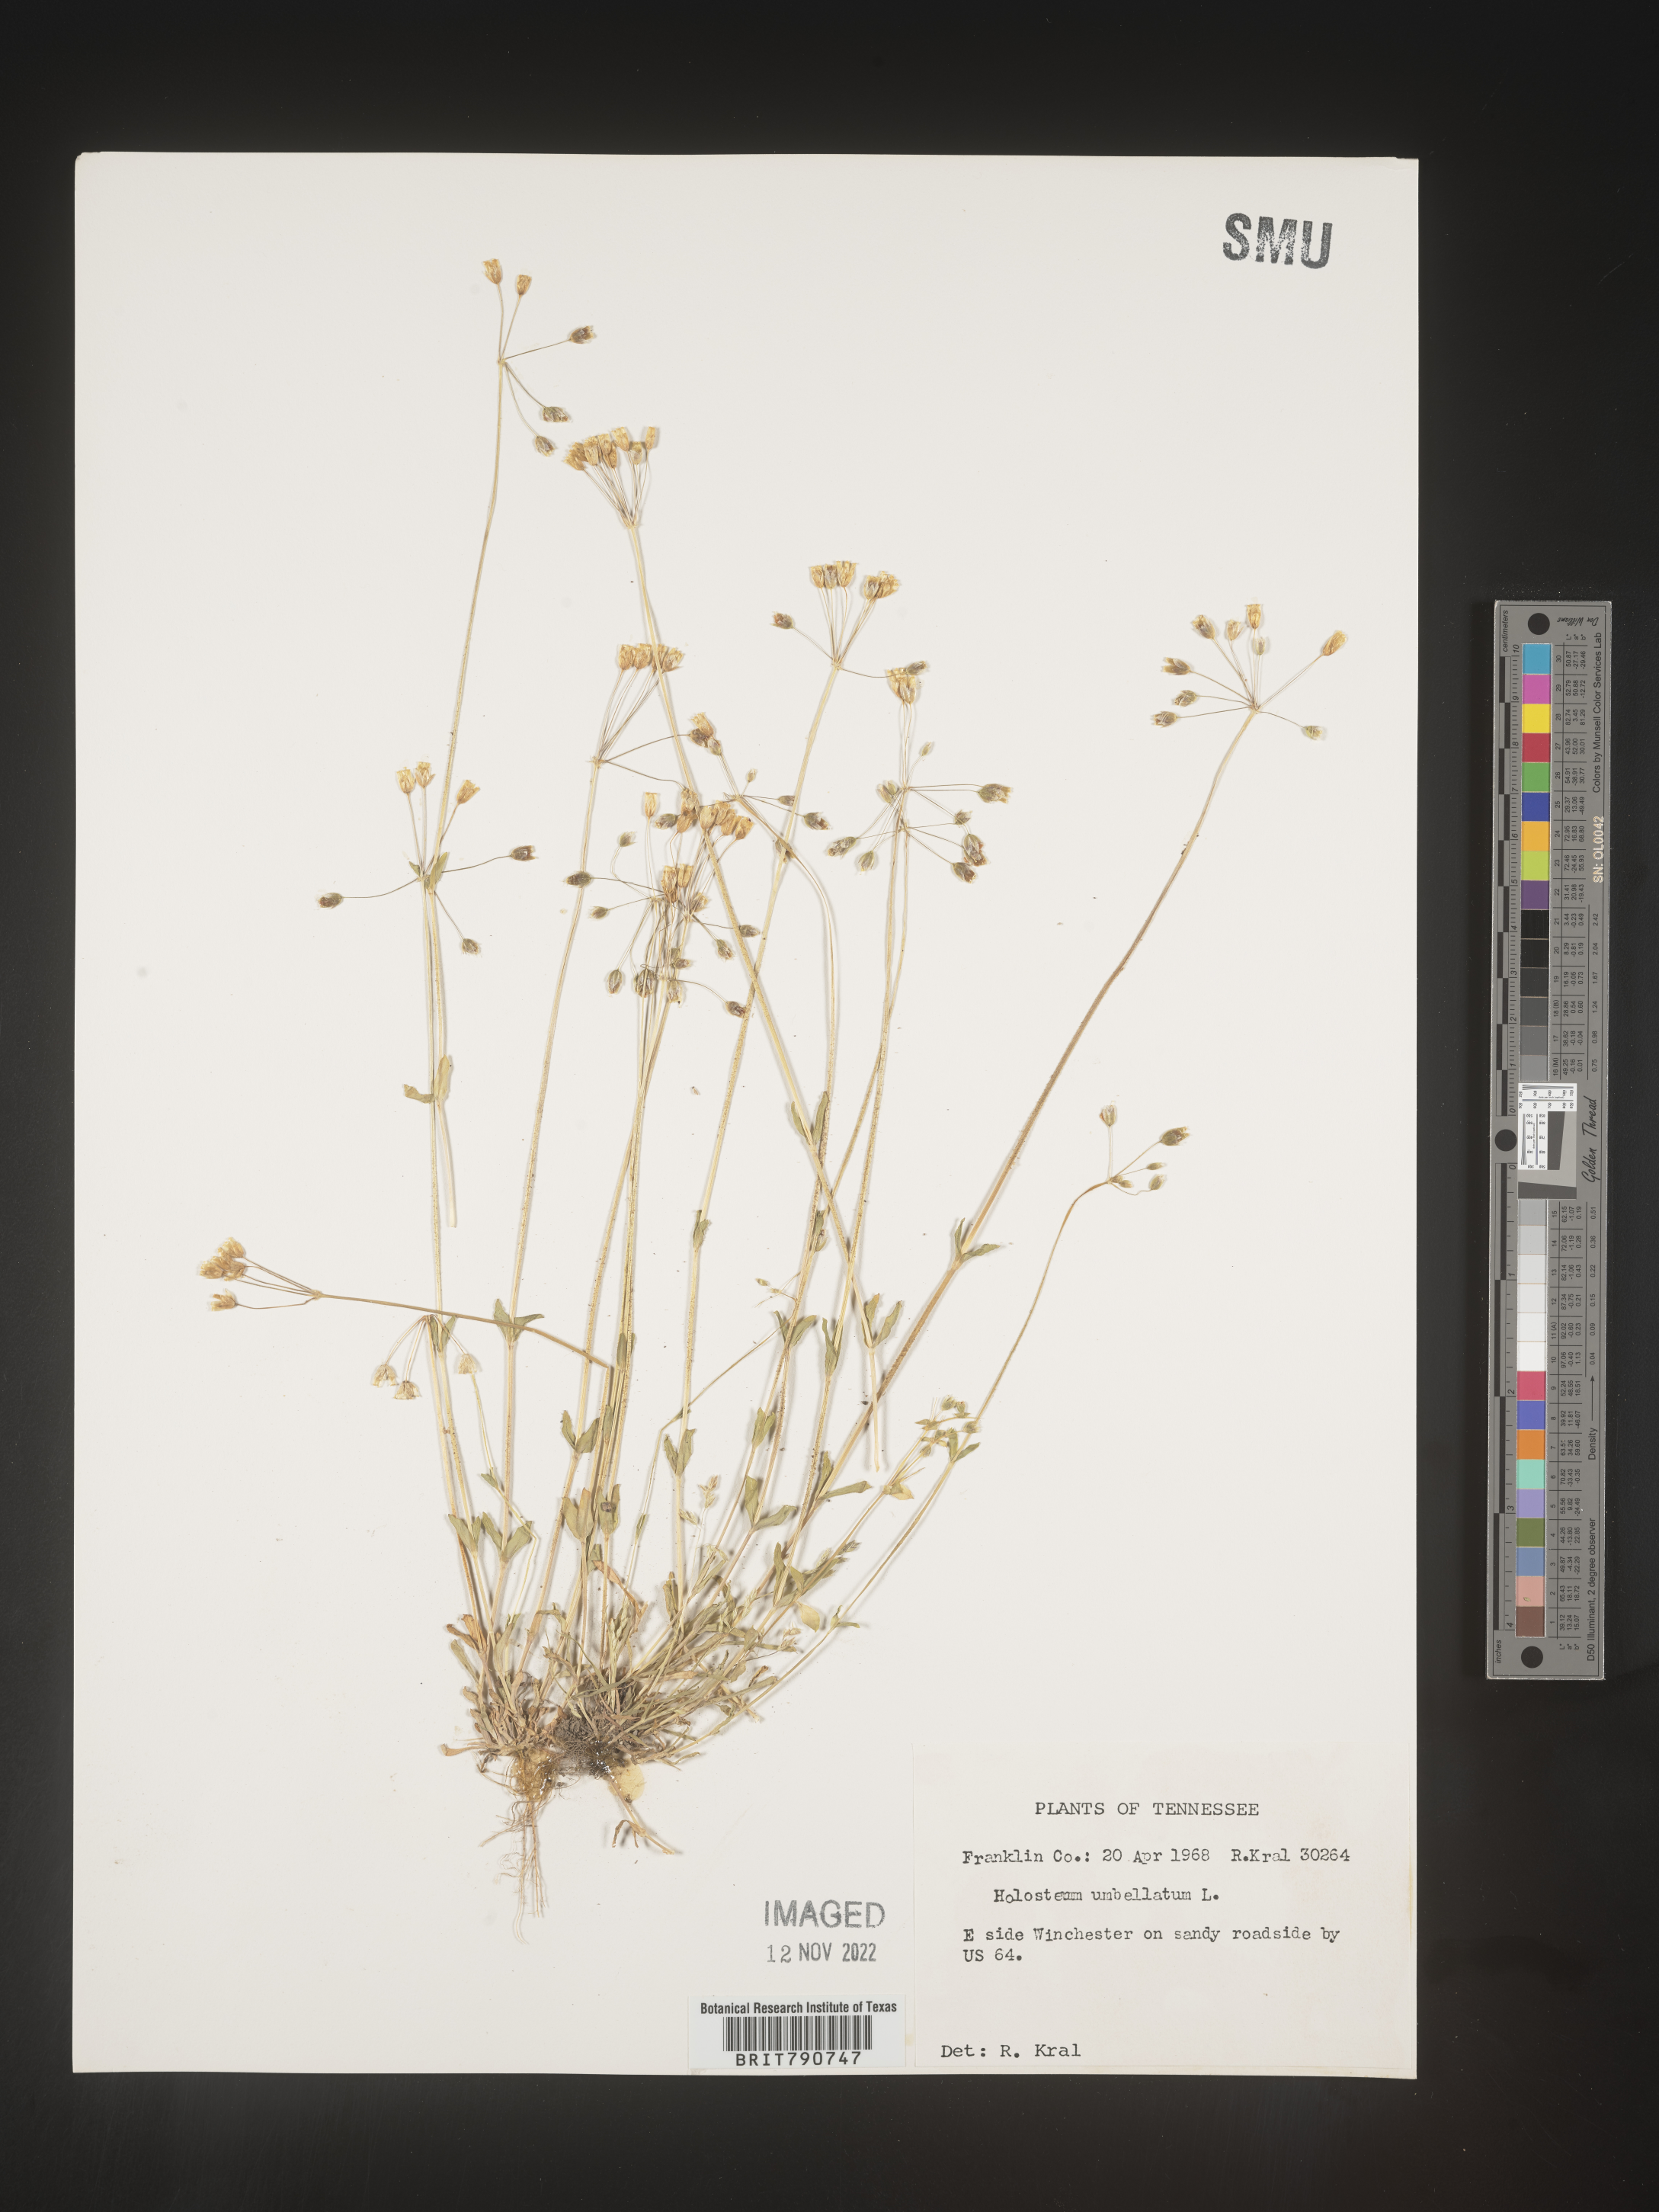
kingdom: Plantae
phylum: Tracheophyta
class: Magnoliopsida
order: Caryophyllales
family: Caryophyllaceae
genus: Holosteum
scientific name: Holosteum
